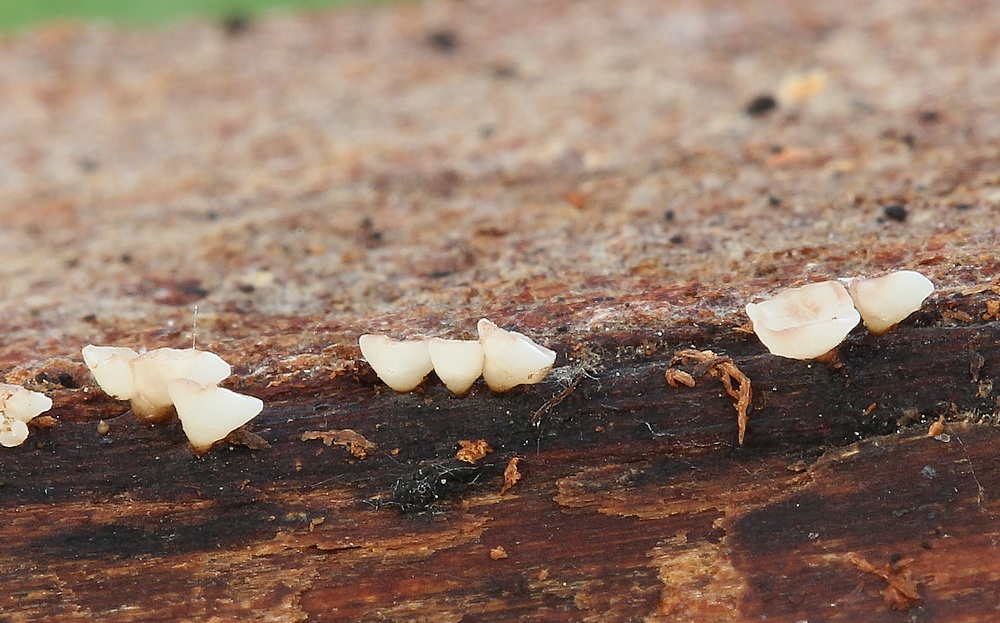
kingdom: Fungi
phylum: Ascomycota
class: Leotiomycetes
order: Helotiales
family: Helotiaceae
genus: Hymenoscyphus
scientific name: Hymenoscyphus imberbis
